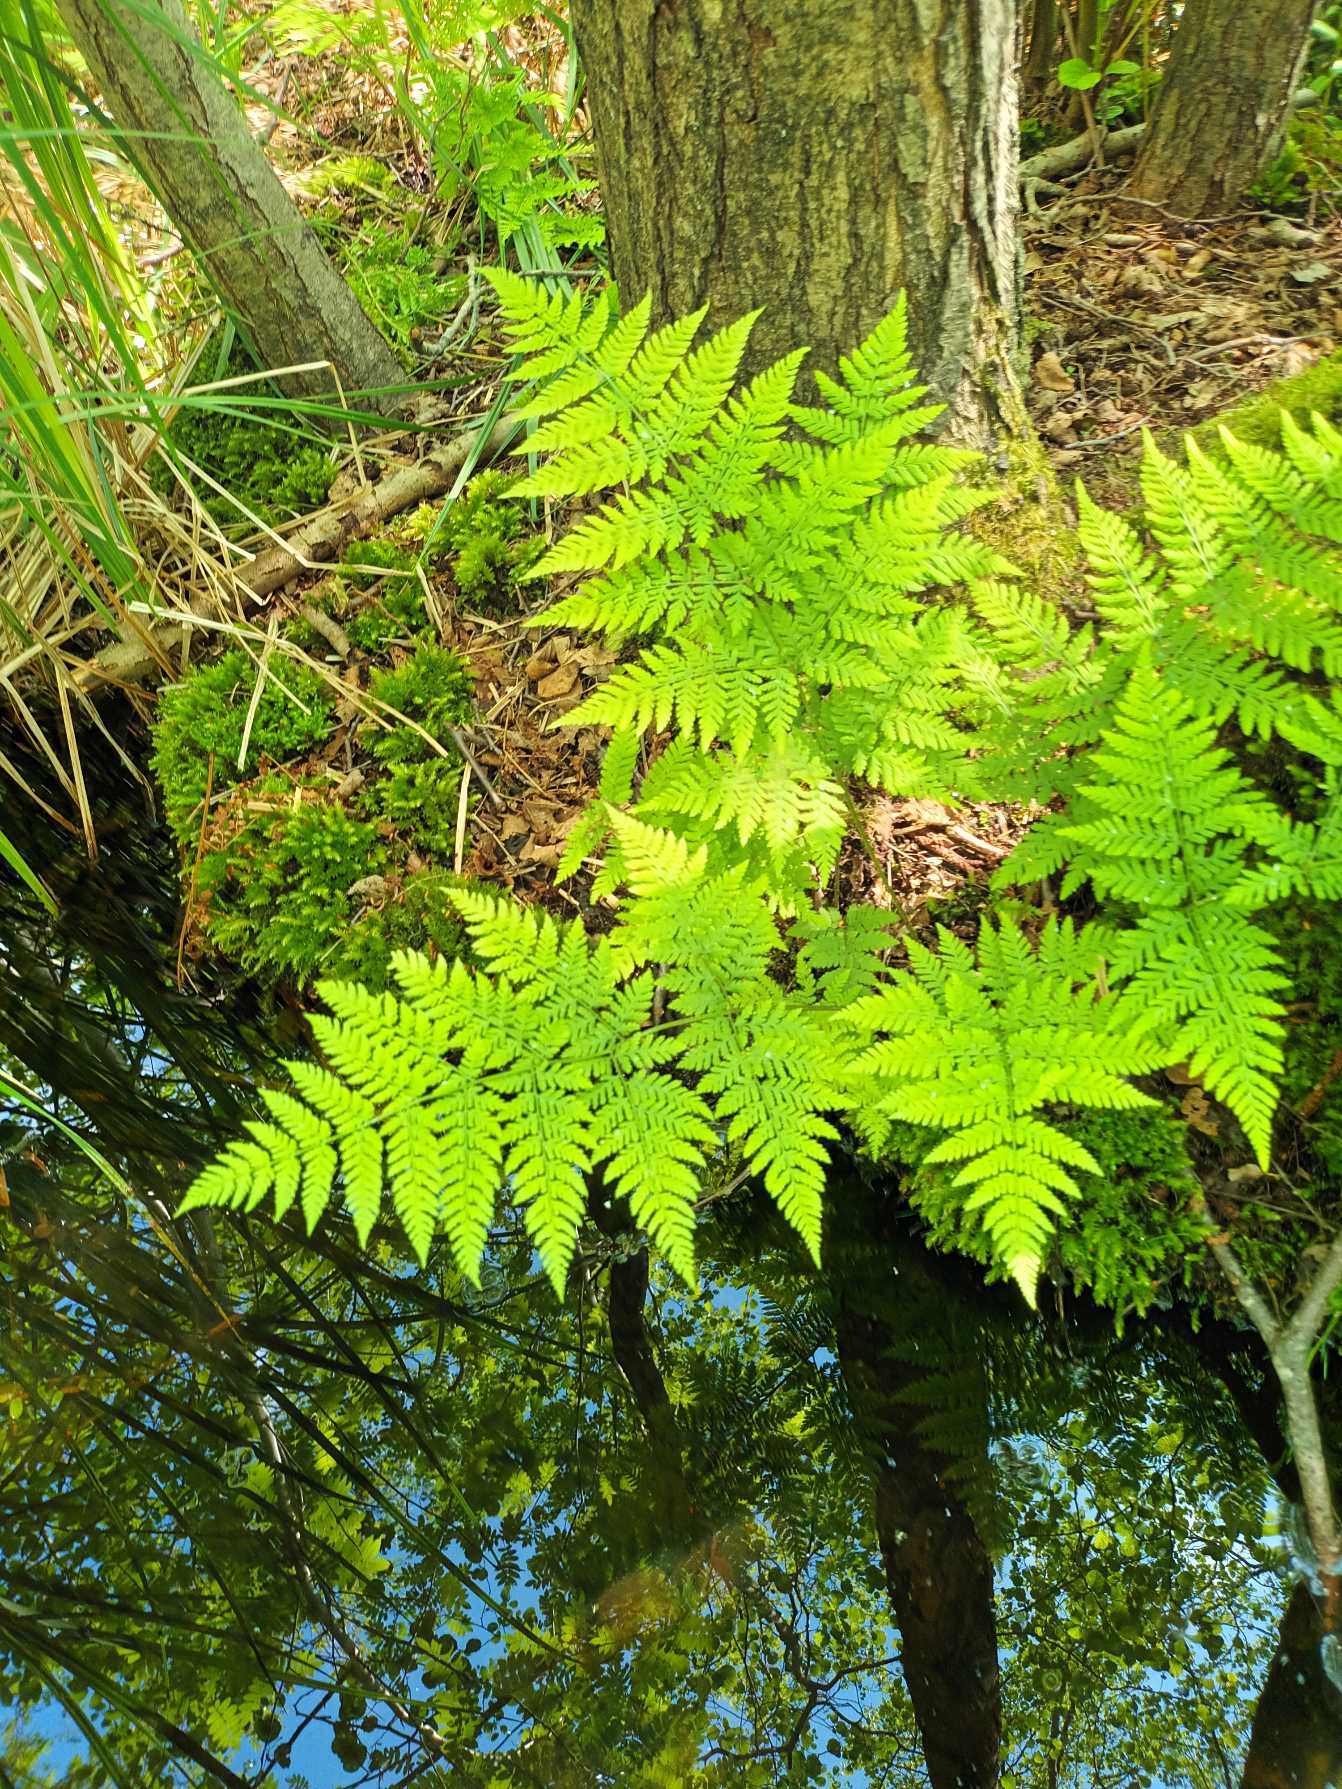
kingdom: Plantae
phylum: Tracheophyta
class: Polypodiopsida
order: Polypodiales
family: Dryopteridaceae
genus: Dryopteris
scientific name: Dryopteris expansa
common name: Finbladet mangeløv
